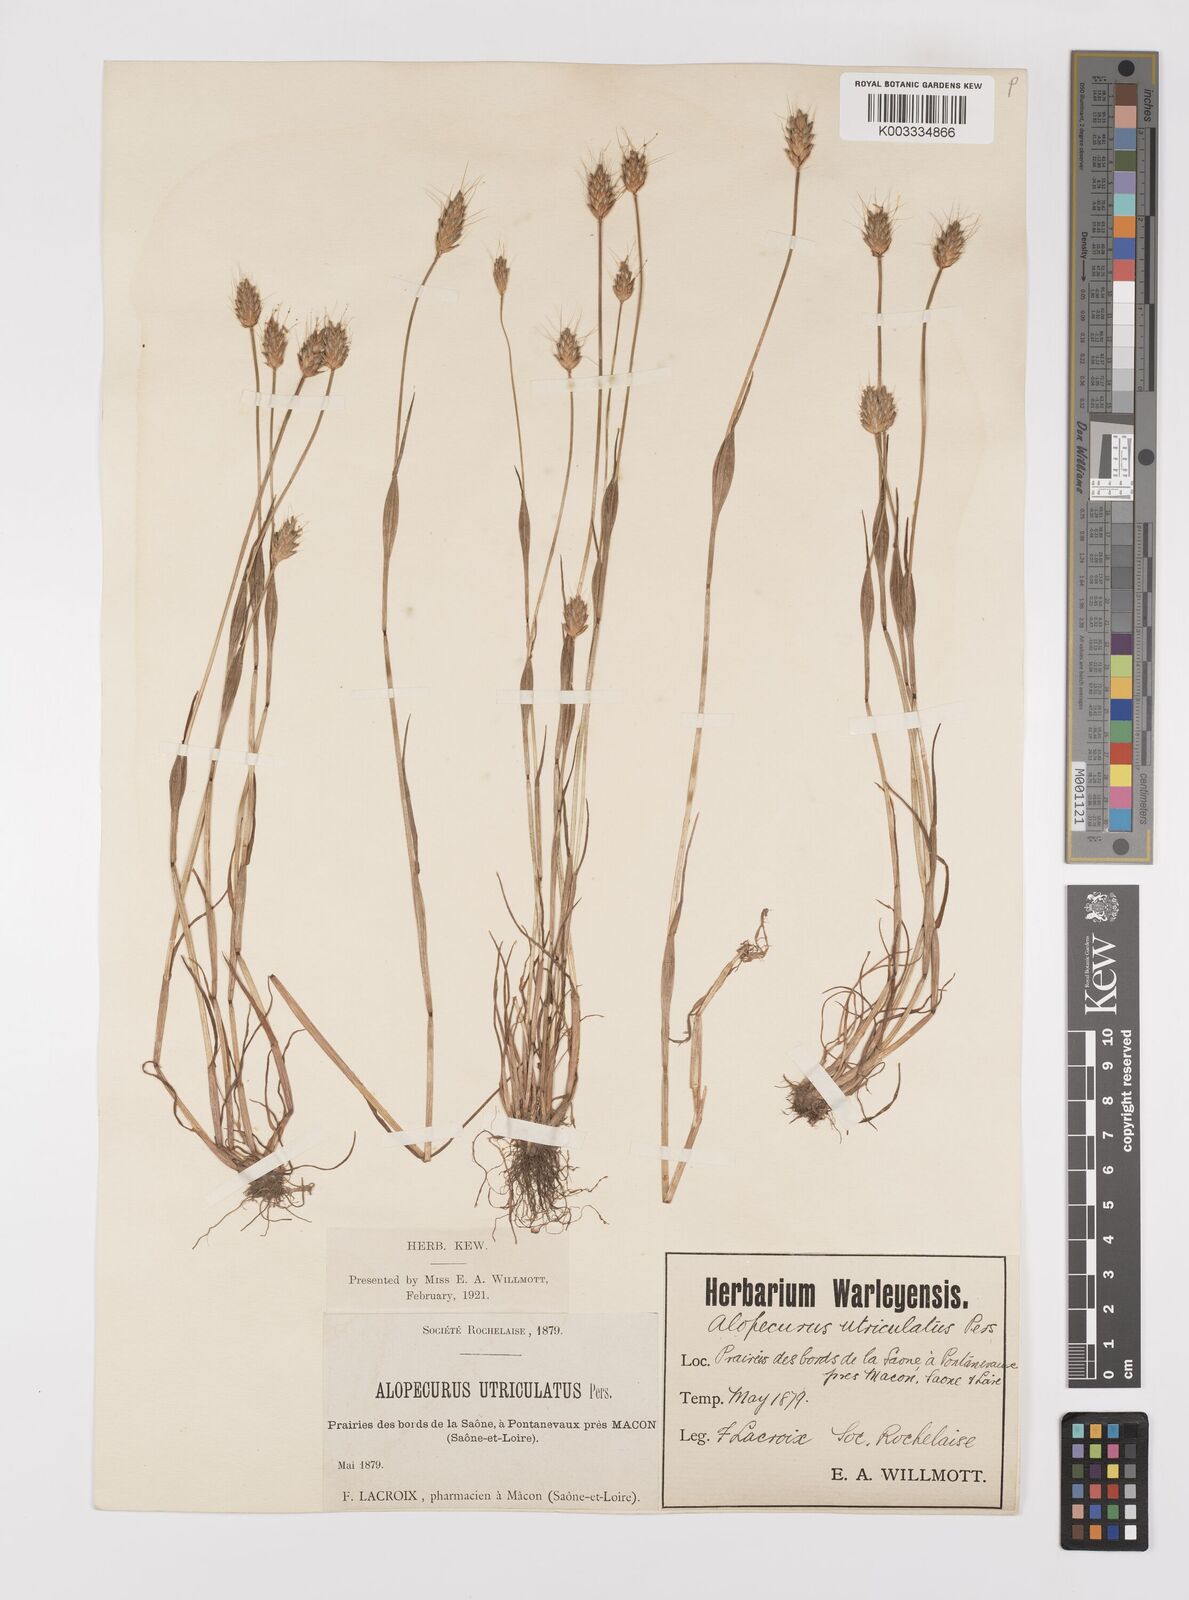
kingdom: Plantae
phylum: Tracheophyta
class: Liliopsida
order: Poales
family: Poaceae
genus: Alopecurus
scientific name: Alopecurus rendlei
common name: Rendle's meadow foxtail
